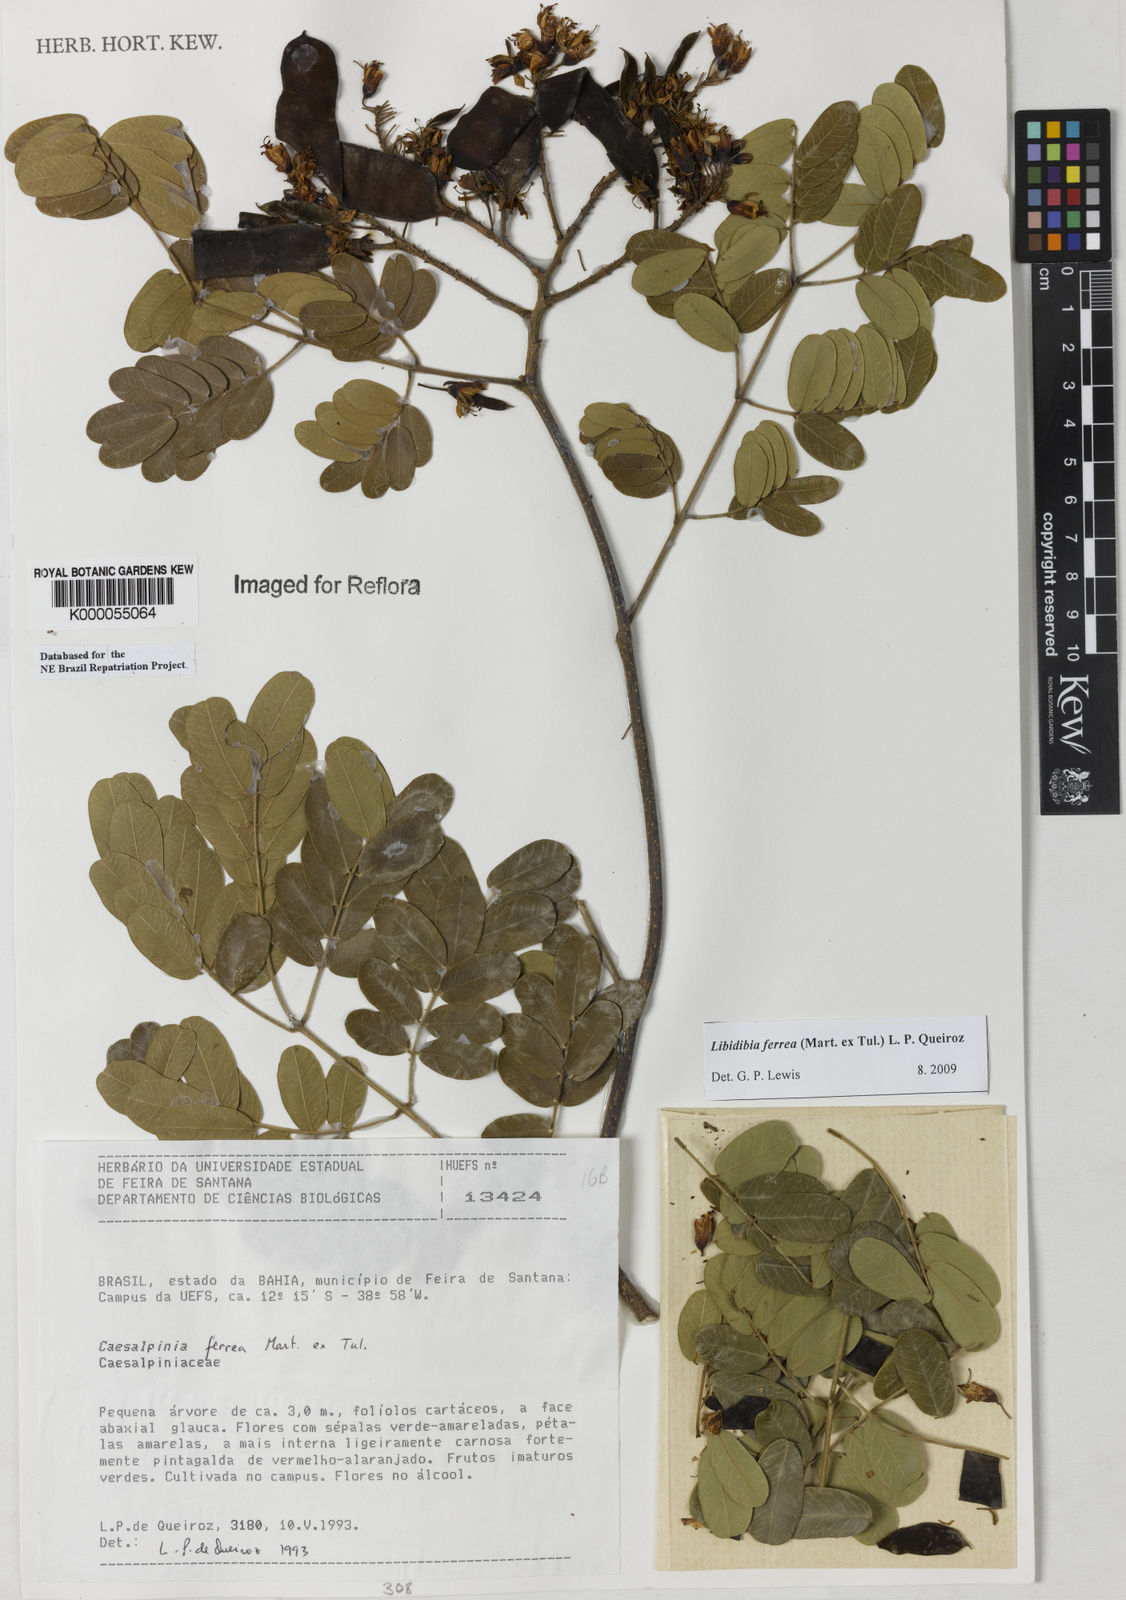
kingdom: Plantae
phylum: Tracheophyta
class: Magnoliopsida
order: Fabales
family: Fabaceae
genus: Libidibia
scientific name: Libidibia ferrea
